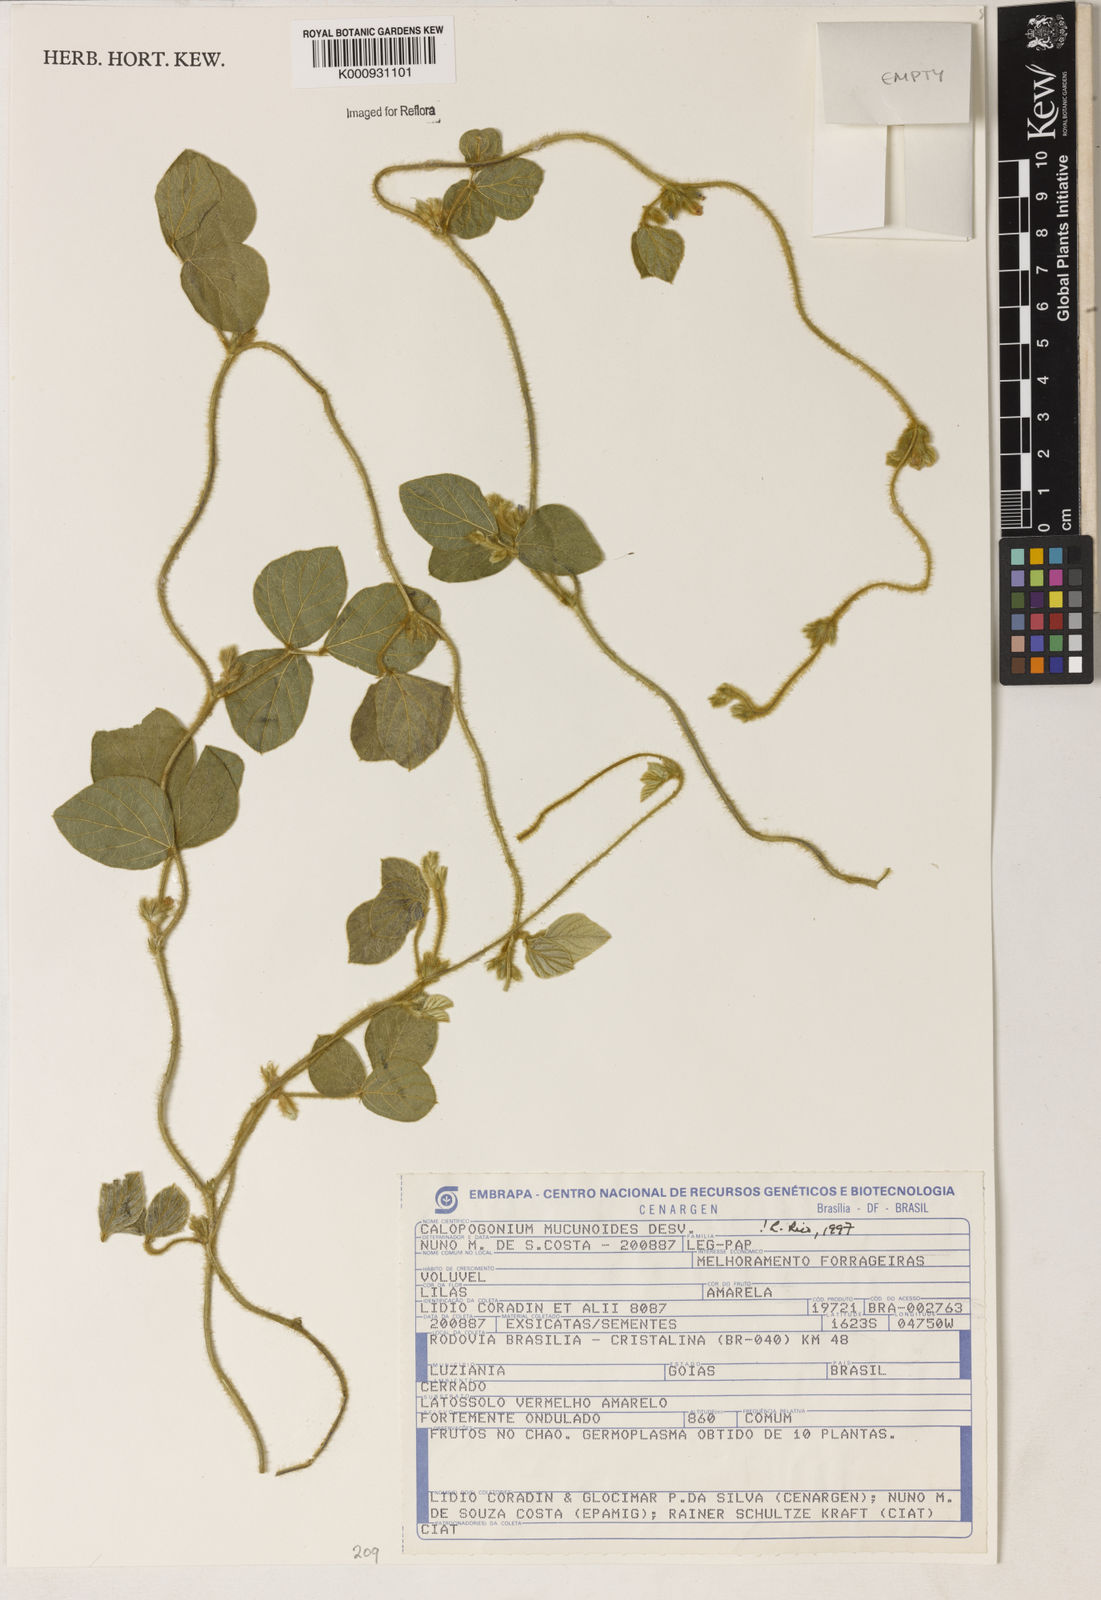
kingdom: Plantae
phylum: Tracheophyta
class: Magnoliopsida
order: Fabales
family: Fabaceae
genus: Calopogonium
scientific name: Calopogonium mucunoides
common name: Calopo
